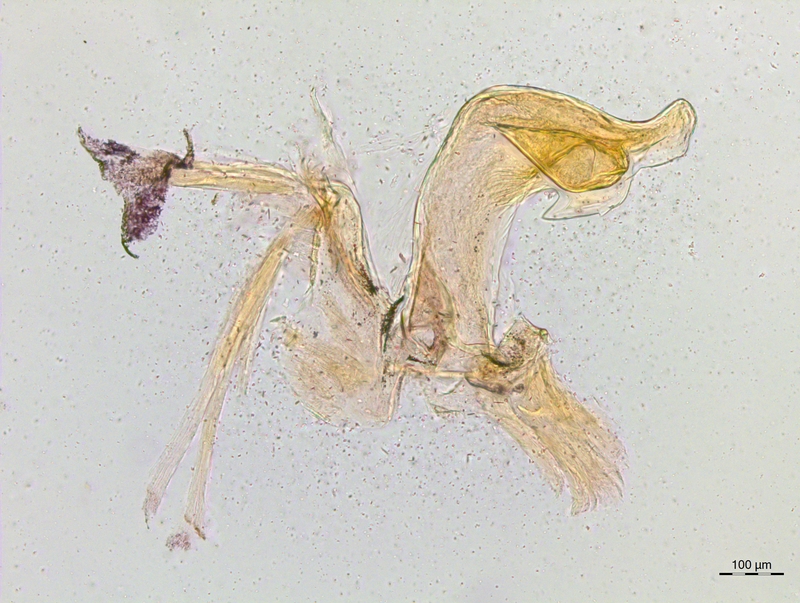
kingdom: Animalia
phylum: Arthropoda
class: Diplopoda
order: Chordeumatida
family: Craspedosomatidae
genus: Craspedosoma
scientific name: Craspedosoma vomrathi
